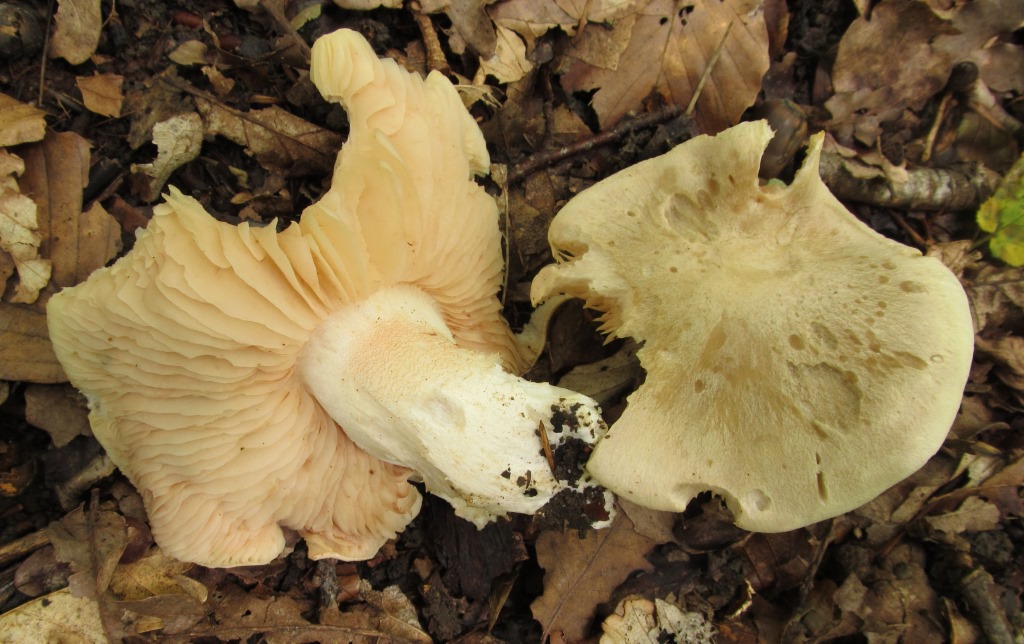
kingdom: Fungi
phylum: Basidiomycota
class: Agaricomycetes
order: Agaricales
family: Entolomataceae
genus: Entoloma
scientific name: Entoloma sinuatum
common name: giftig rødblad
